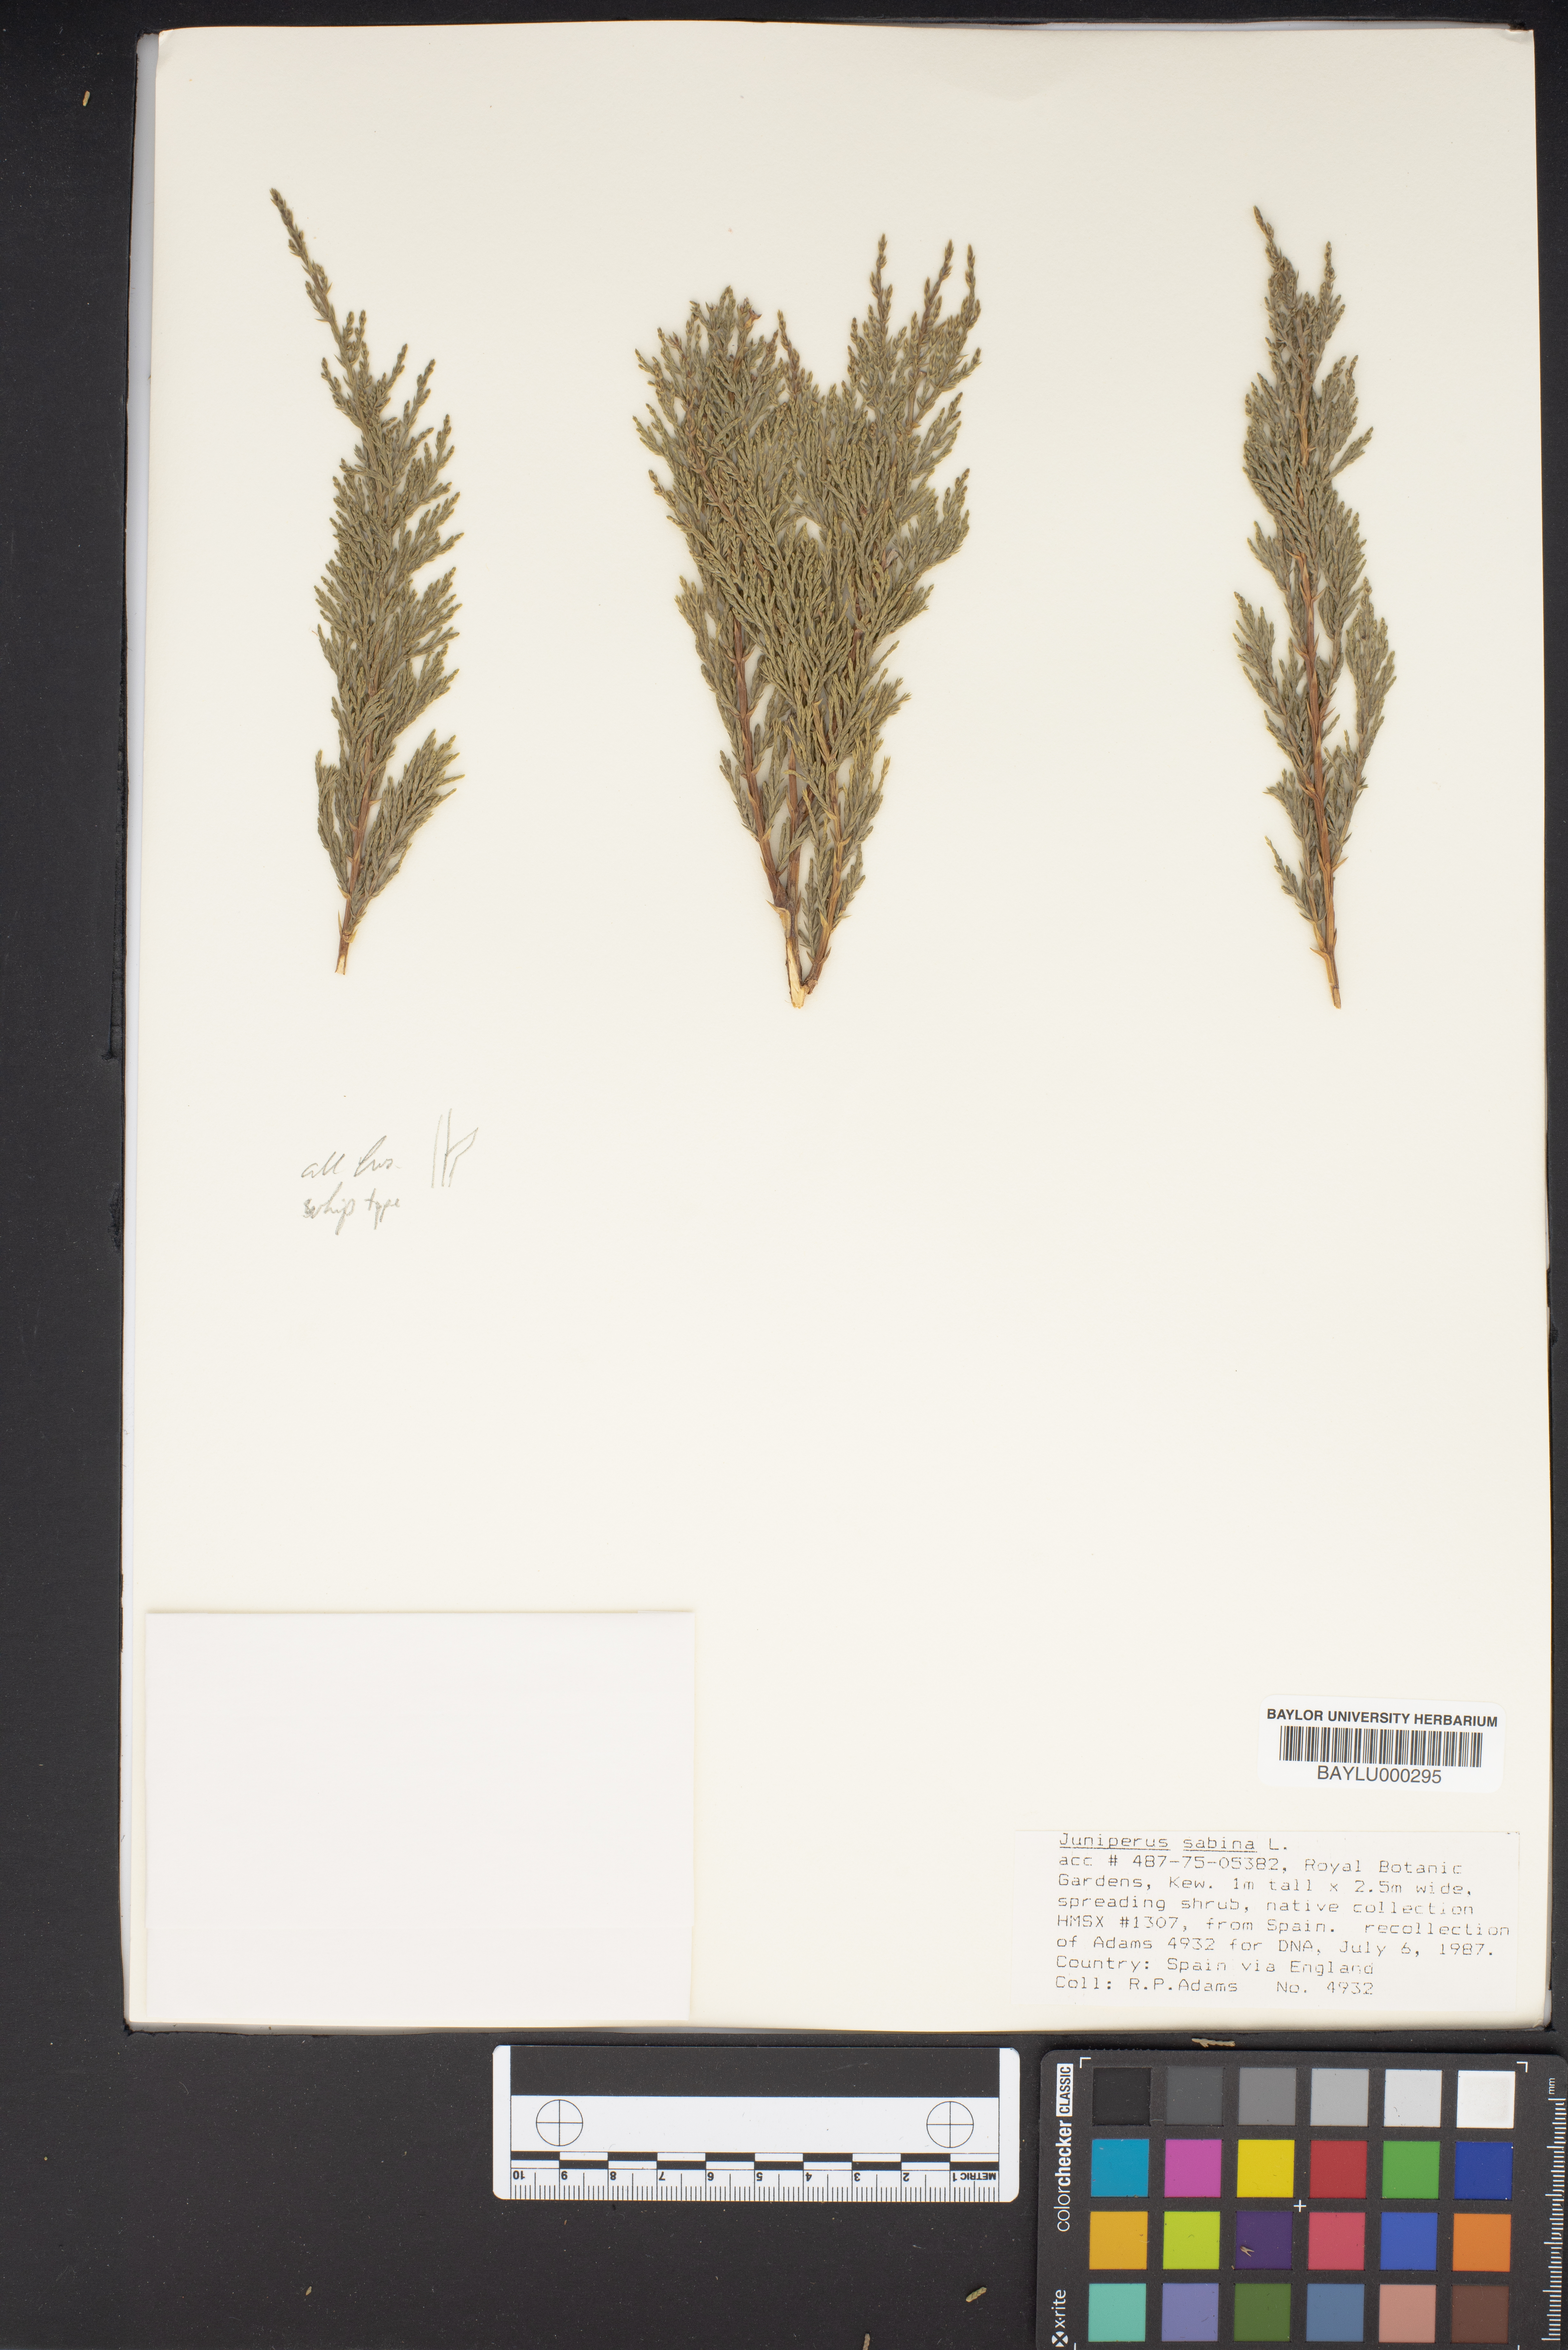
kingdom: Plantae
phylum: Tracheophyta
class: Pinopsida
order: Pinales
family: Cupressaceae
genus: Juniperus
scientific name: Juniperus sabina
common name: Savin
